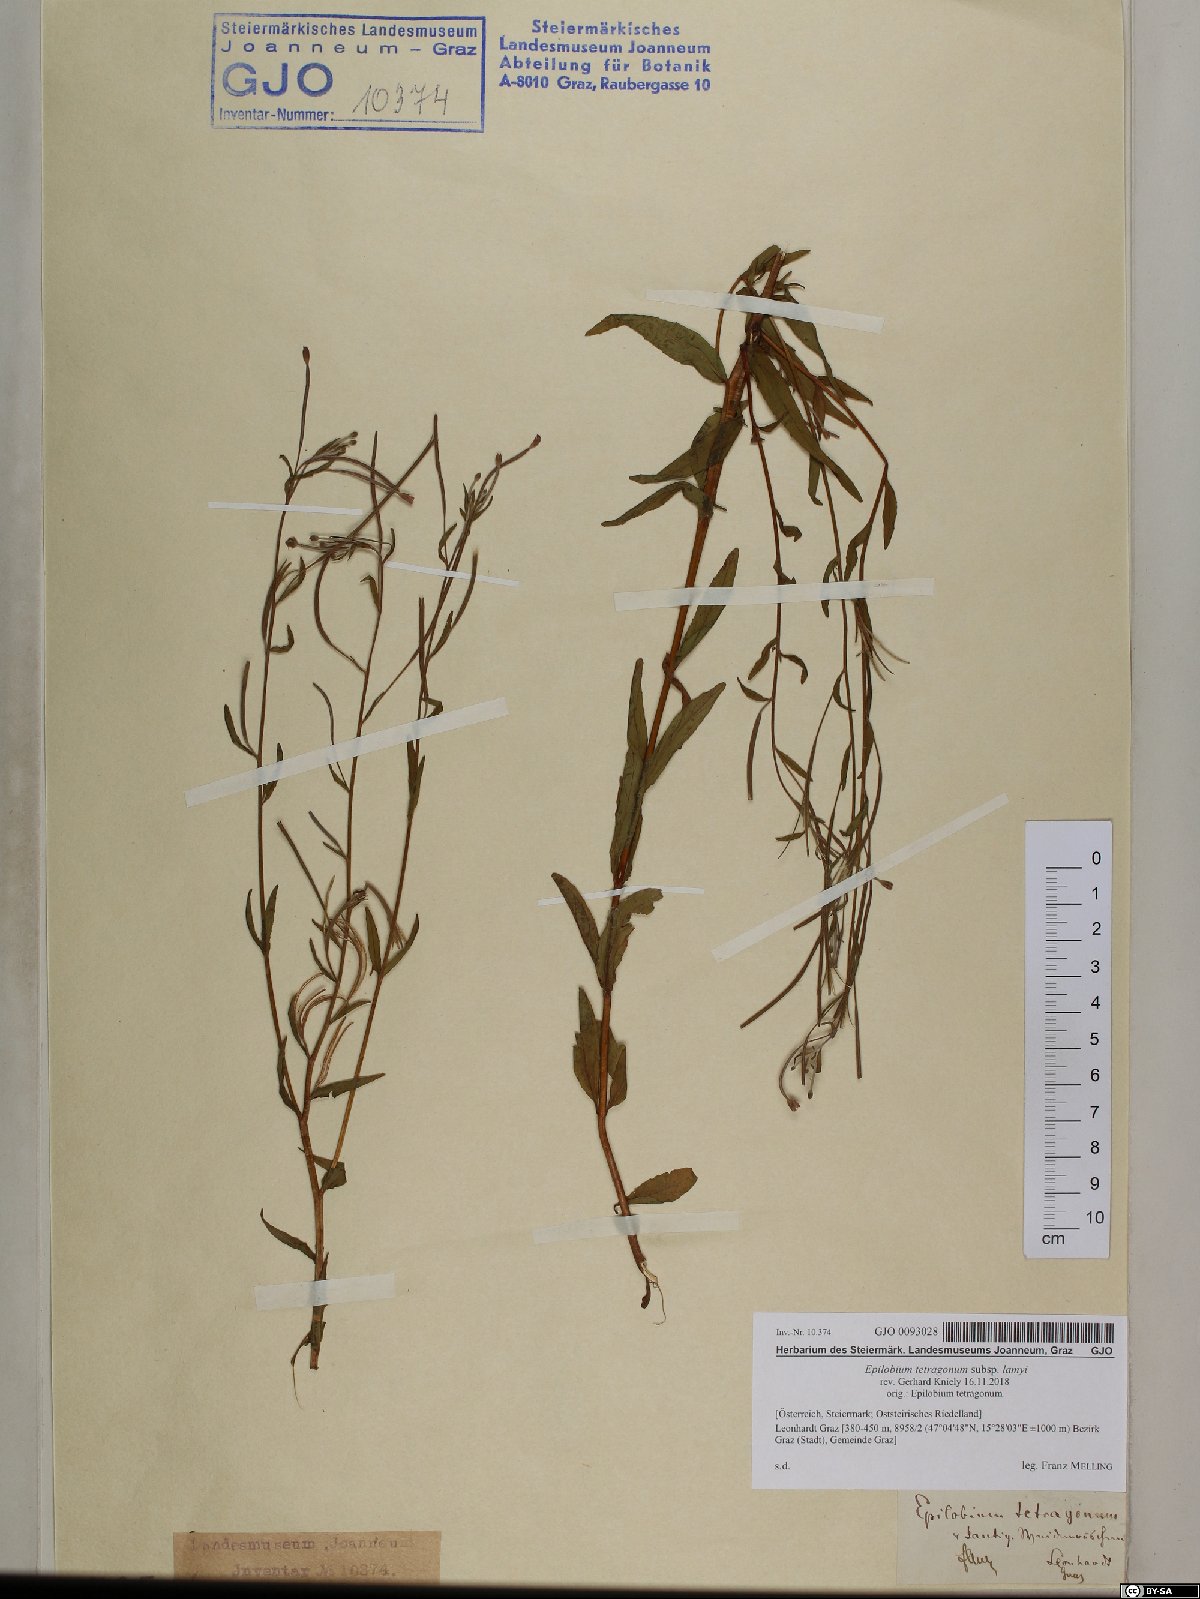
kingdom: Plantae
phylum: Tracheophyta
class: Magnoliopsida
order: Myrtales
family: Onagraceae
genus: Epilobium
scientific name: Epilobium lamyi
